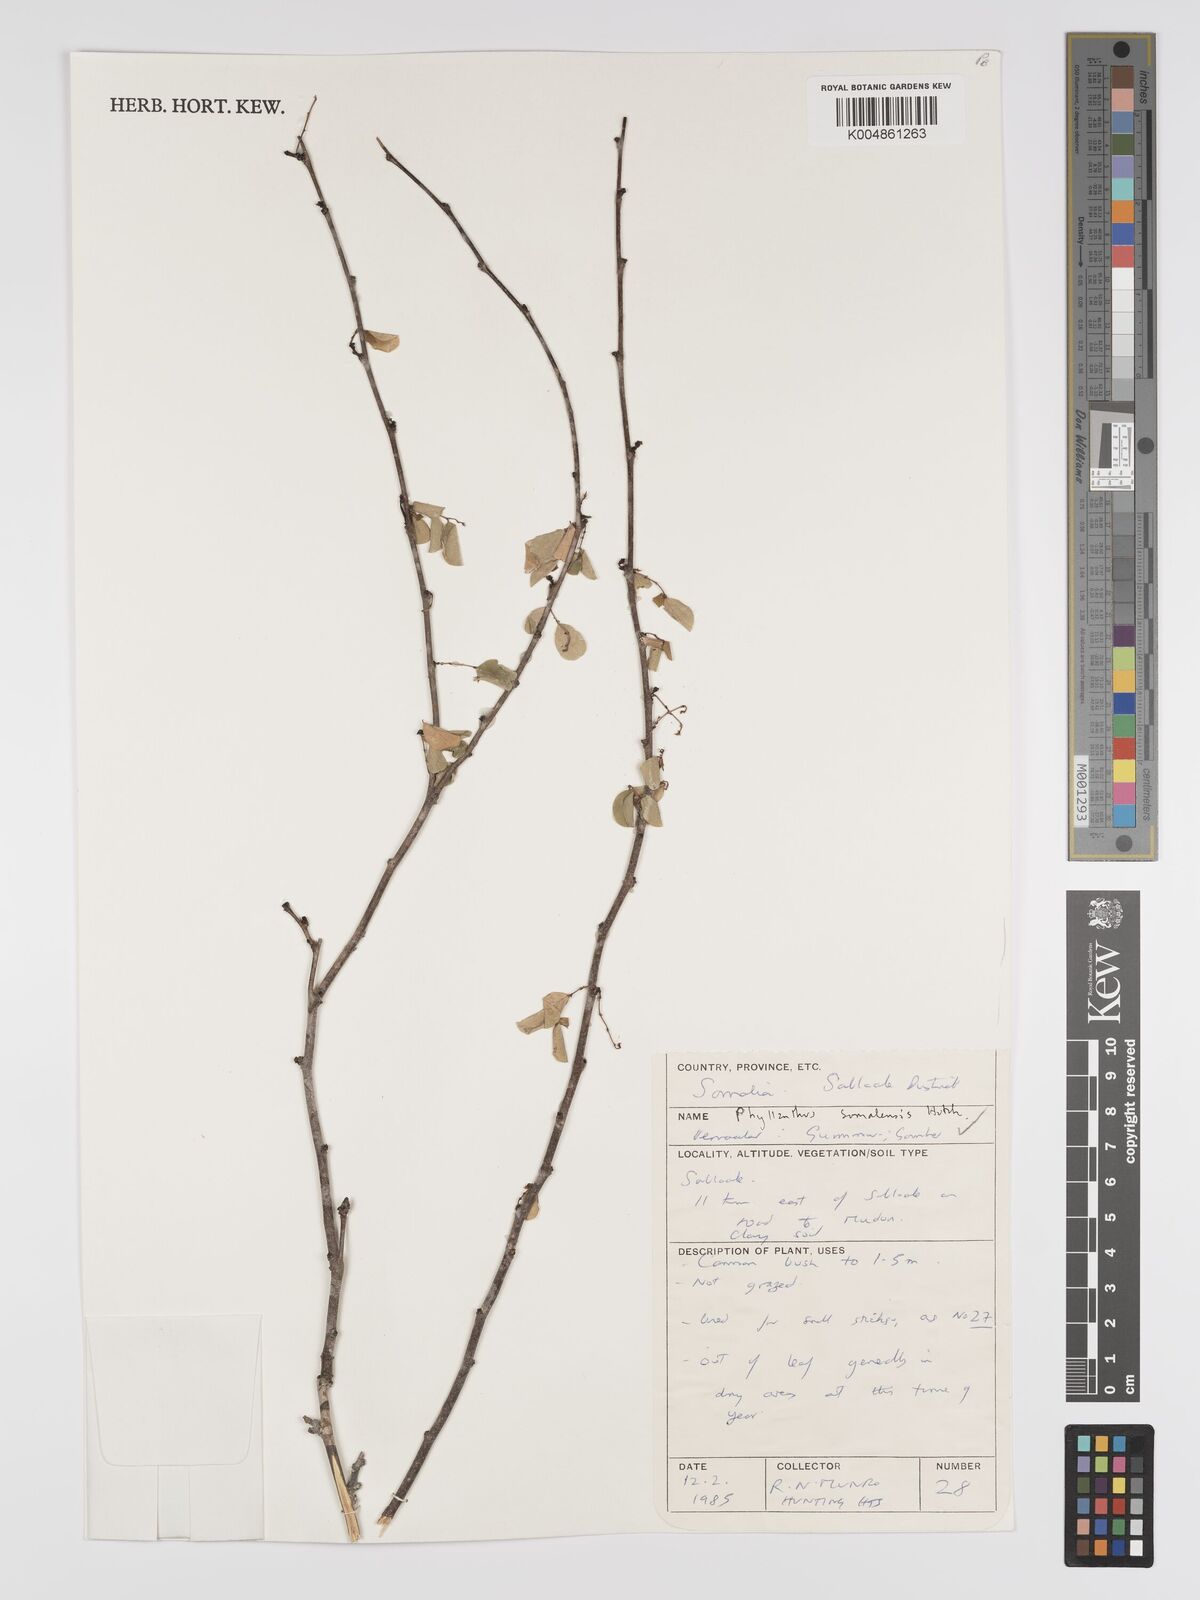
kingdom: Plantae
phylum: Tracheophyta
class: Magnoliopsida
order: Malpighiales
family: Phyllanthaceae
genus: Phyllanthus
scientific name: Phyllanthus somalensis
